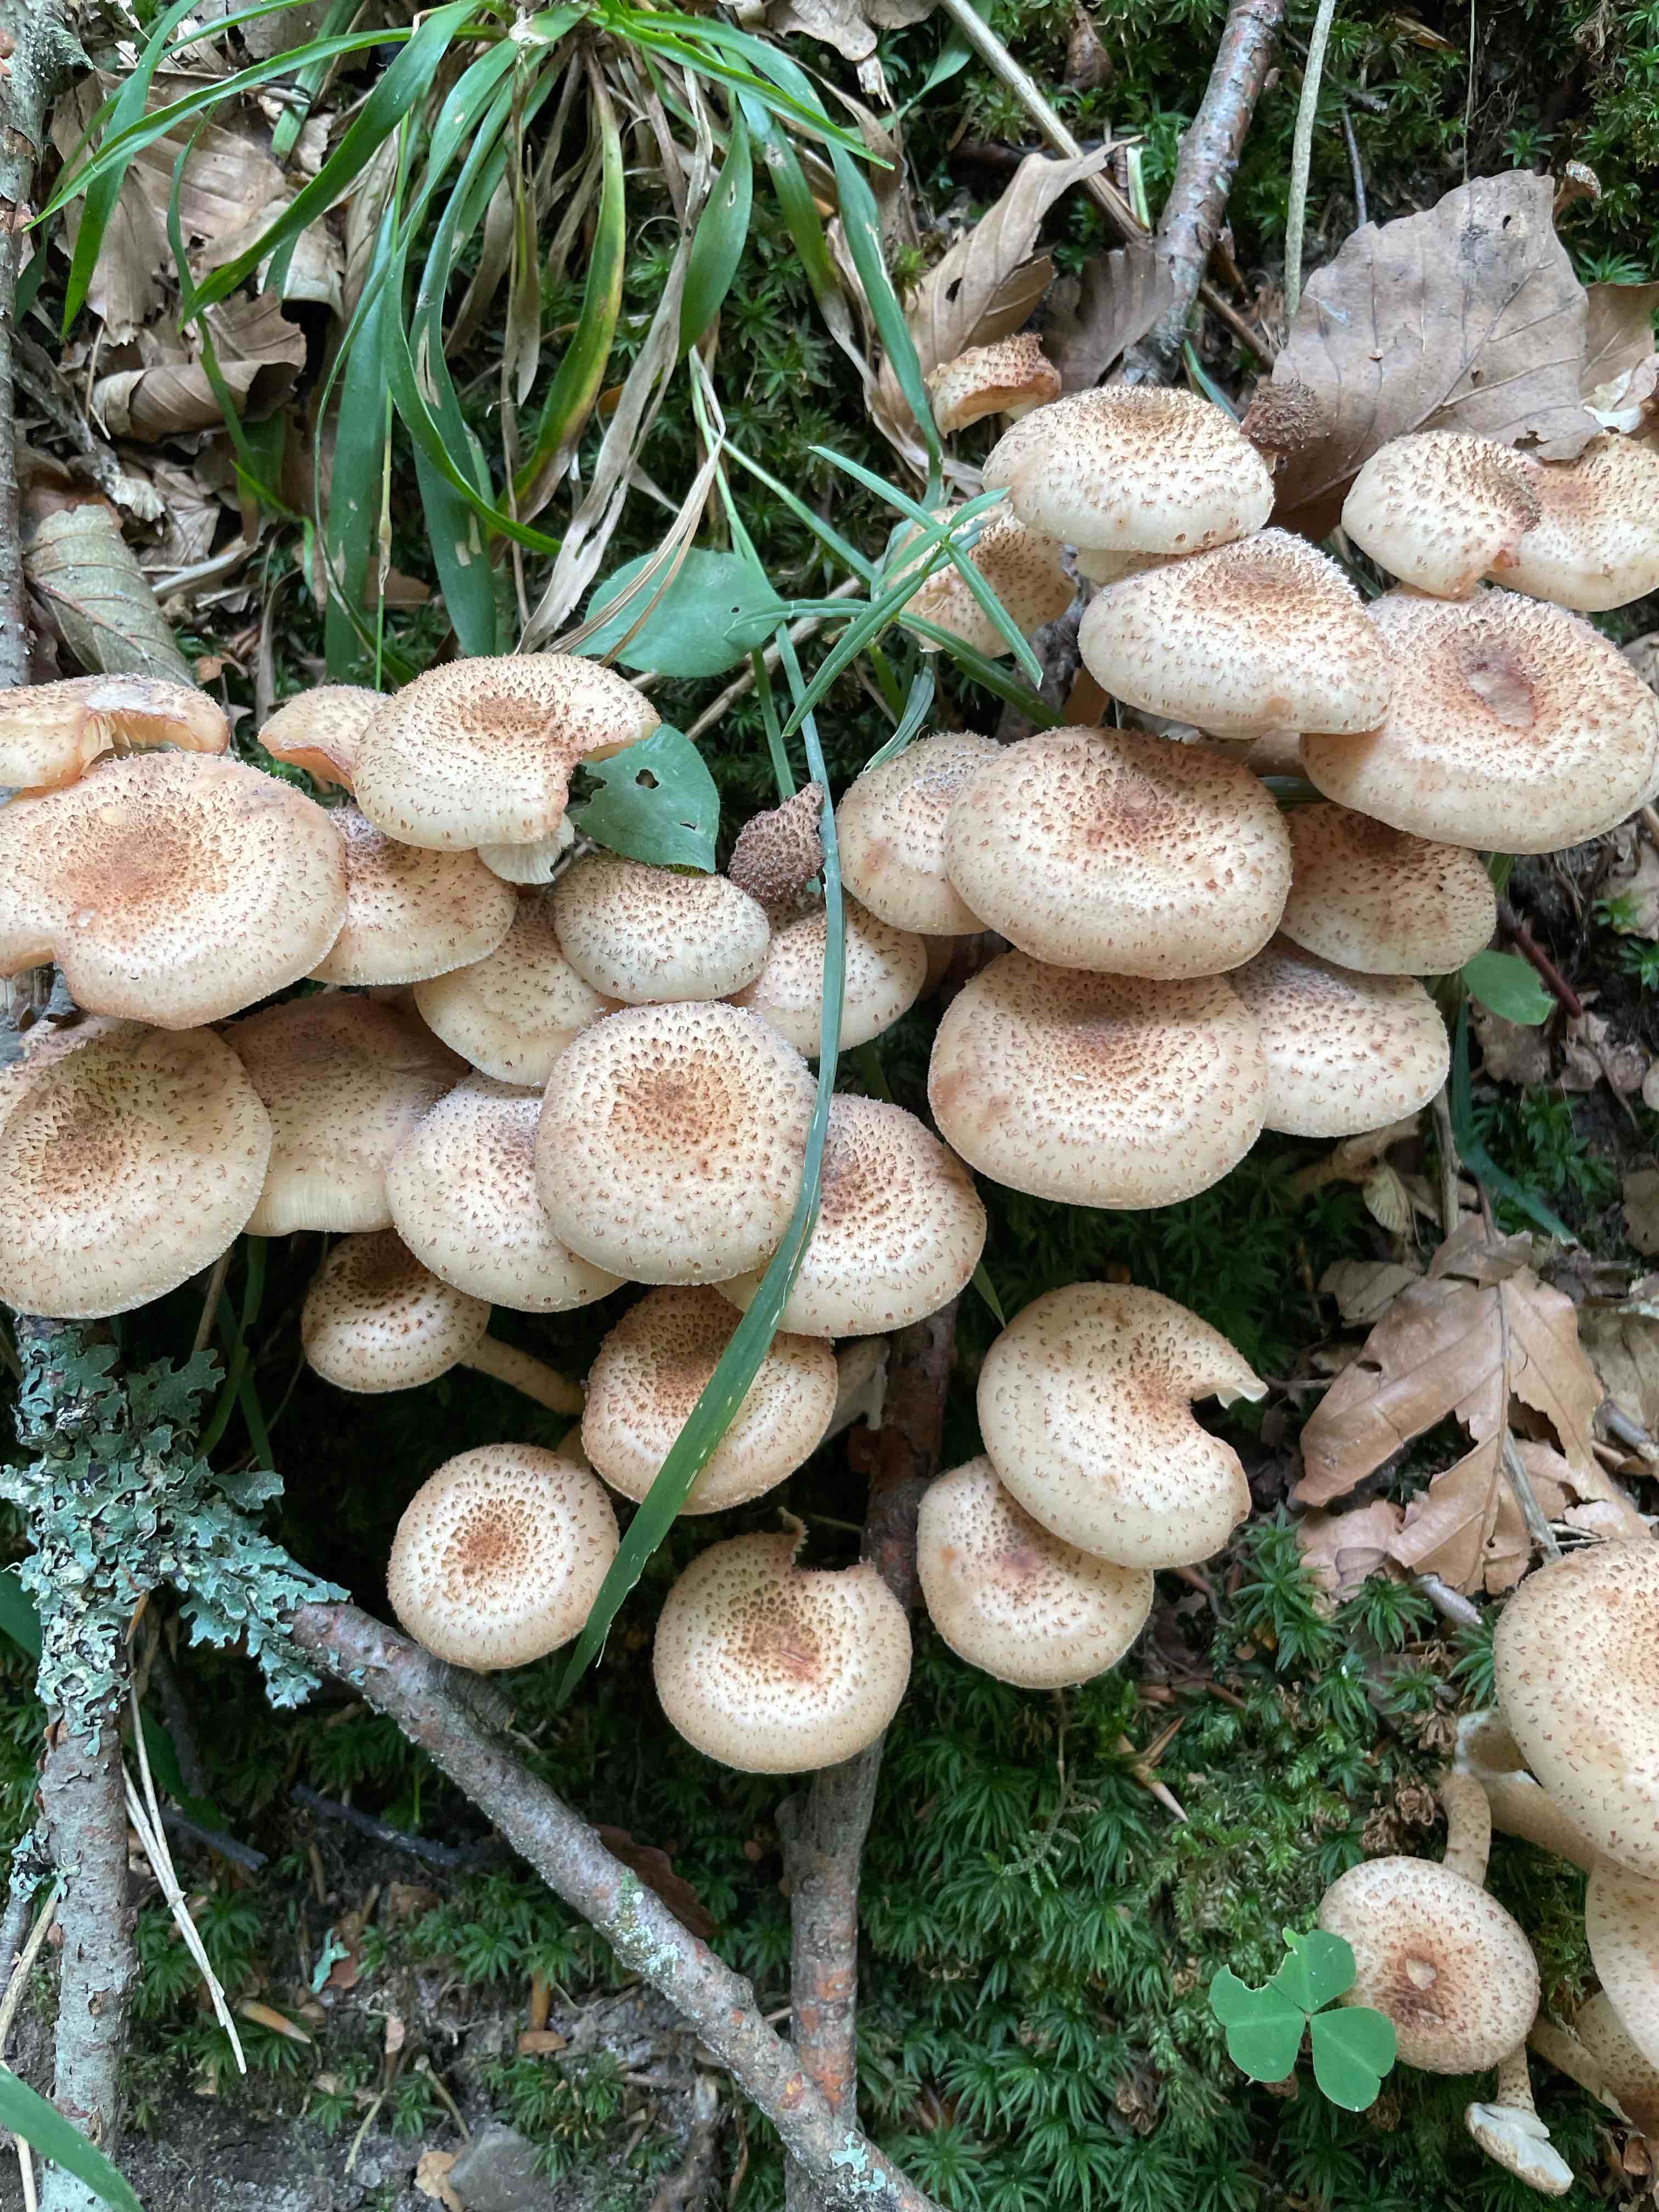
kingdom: Fungi
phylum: Basidiomycota
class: Agaricomycetes
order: Agaricales
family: Physalacriaceae
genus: Armillaria
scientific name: Armillaria ostoyae
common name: mørk honningsvamp
